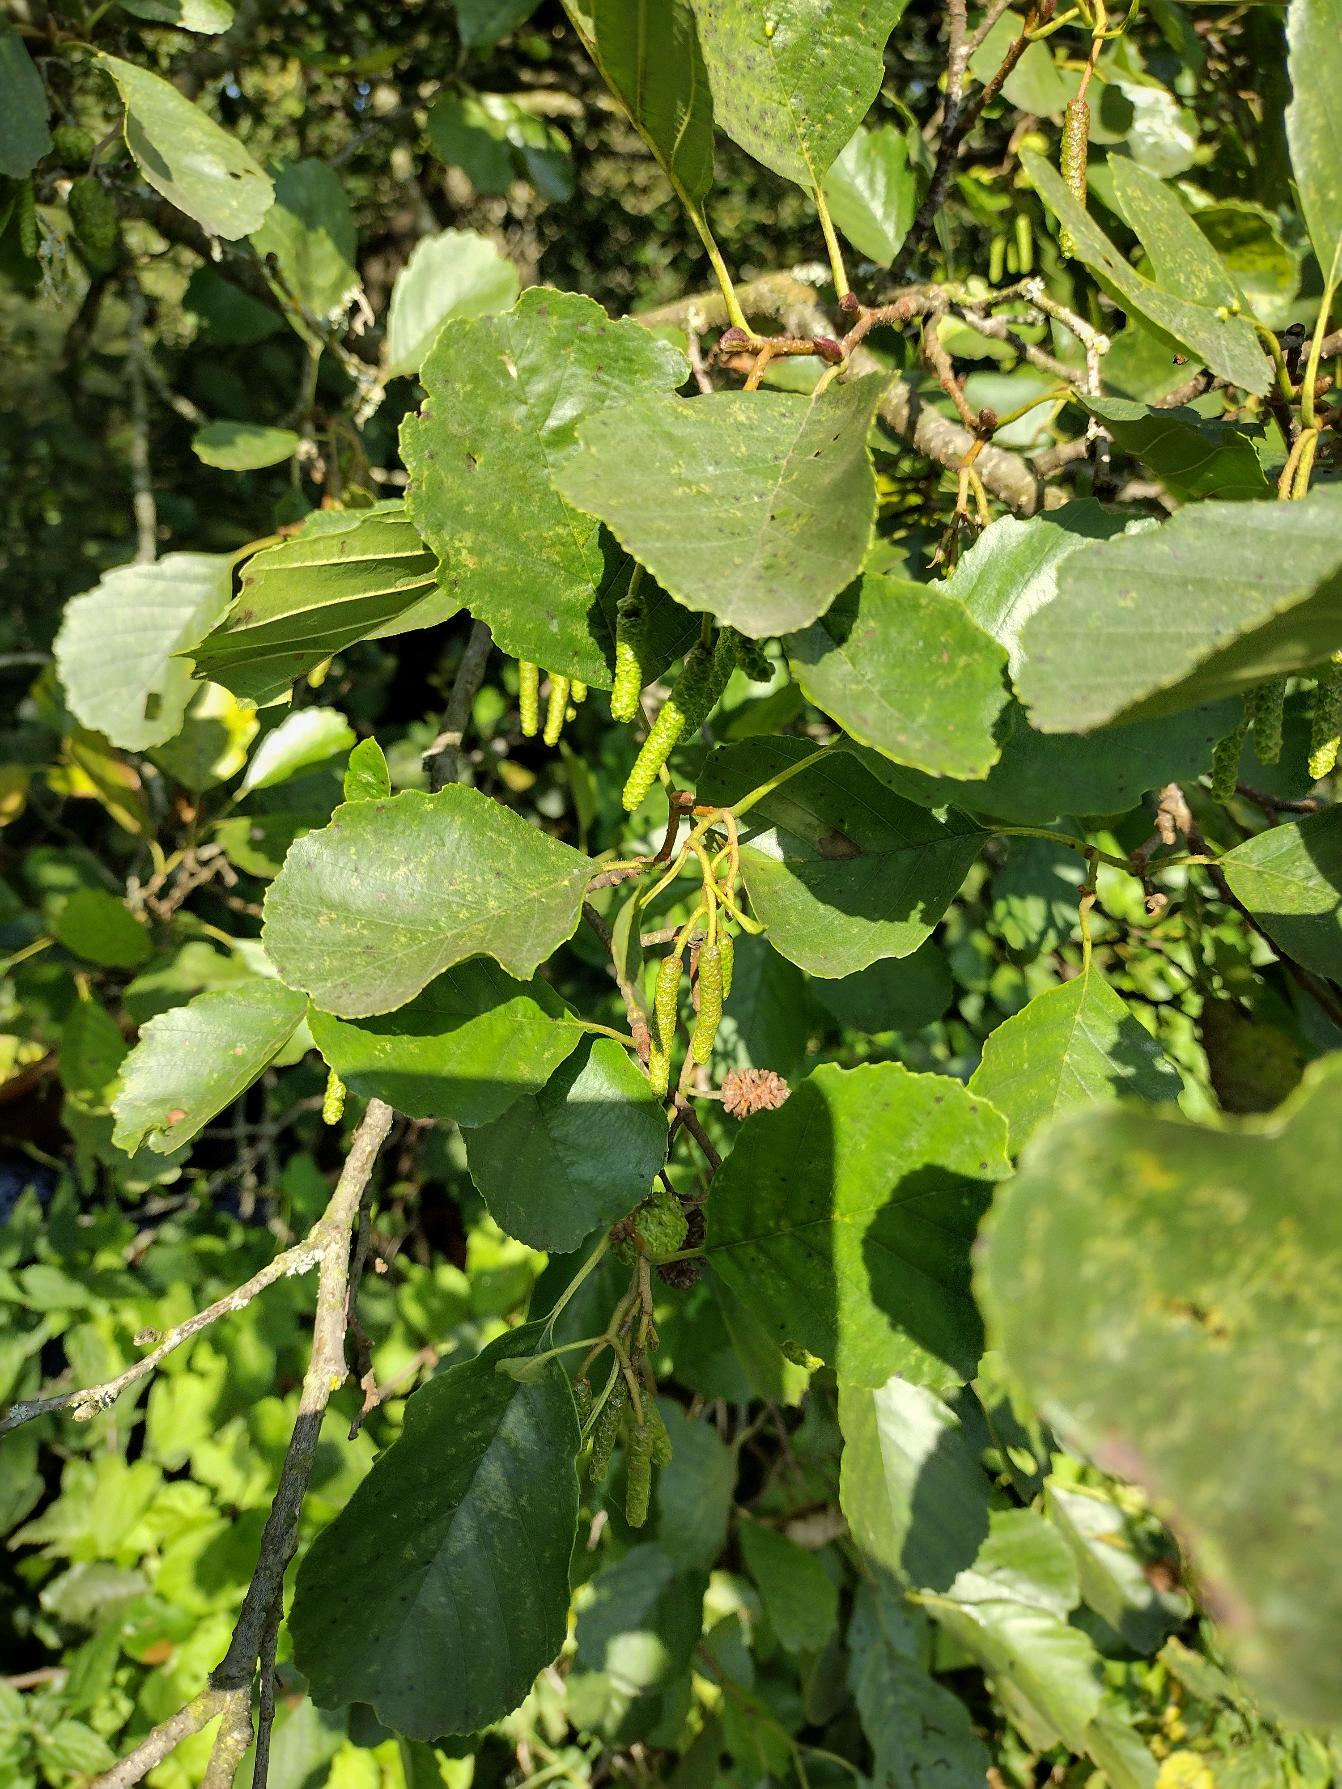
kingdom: Plantae
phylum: Tracheophyta
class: Magnoliopsida
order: Fagales
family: Betulaceae
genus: Alnus
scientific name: Alnus glutinosa
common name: Rød-el
